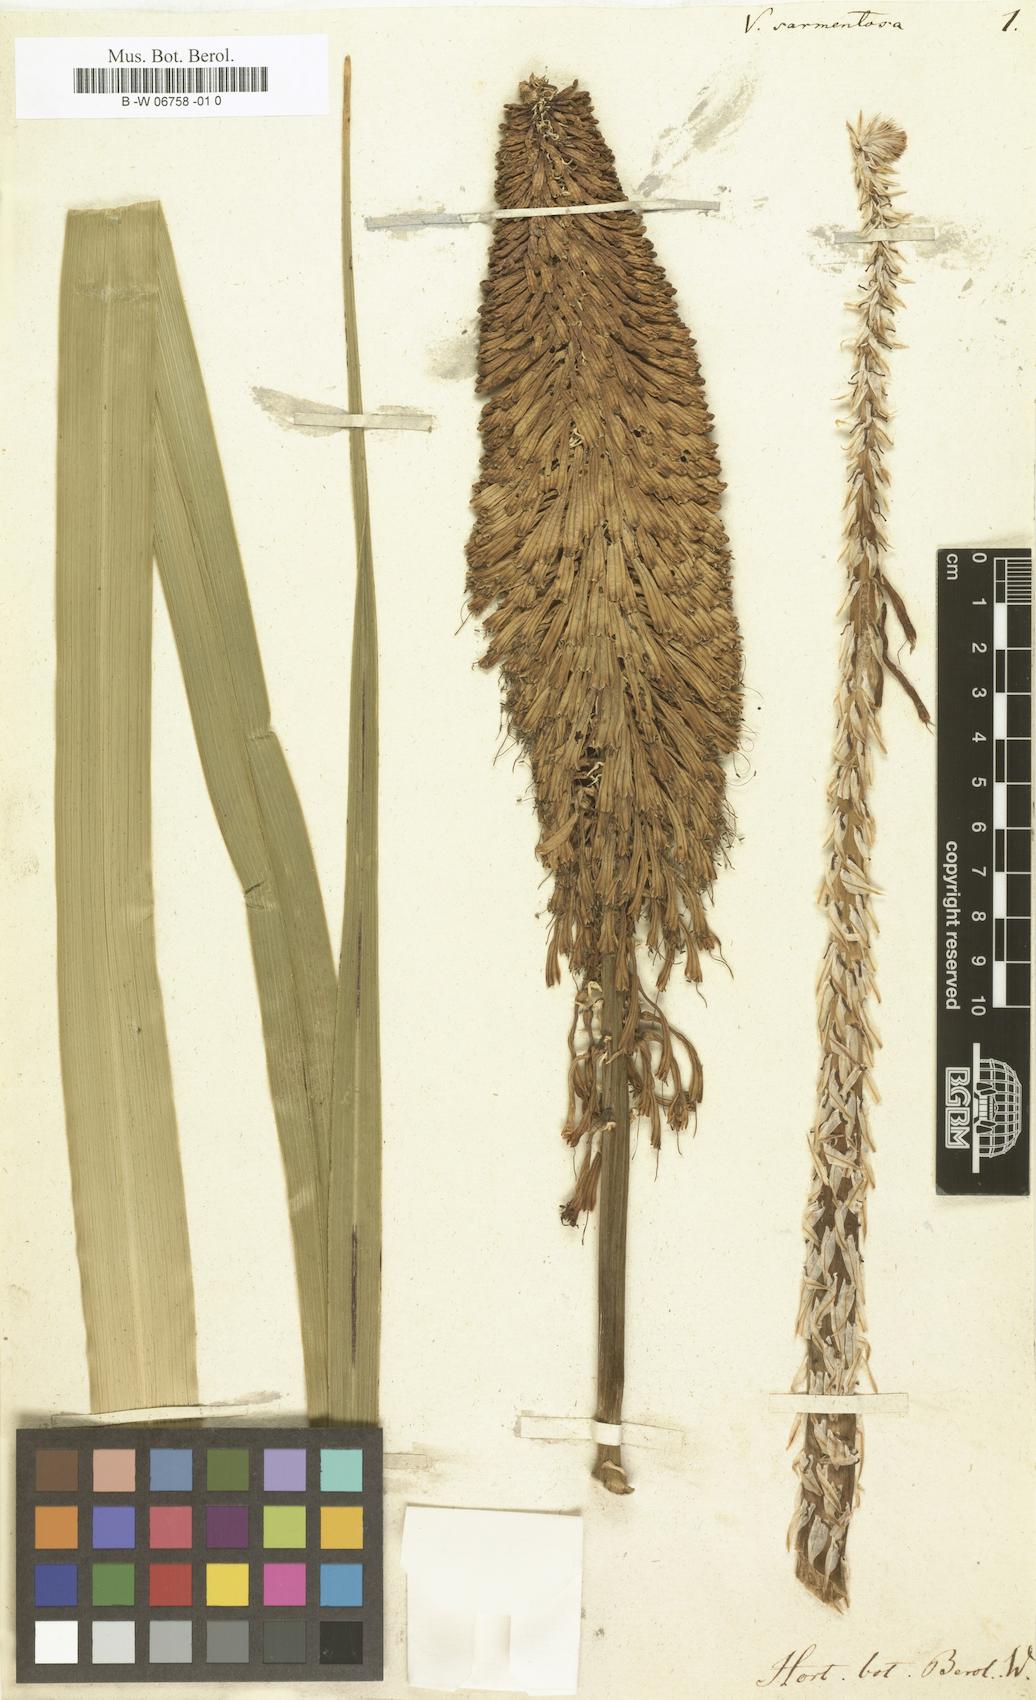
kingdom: Plantae
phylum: Tracheophyta
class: Liliopsida
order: Asparagales
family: Asphodelaceae
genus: Kniphofia
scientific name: Kniphofia sarmentosa
